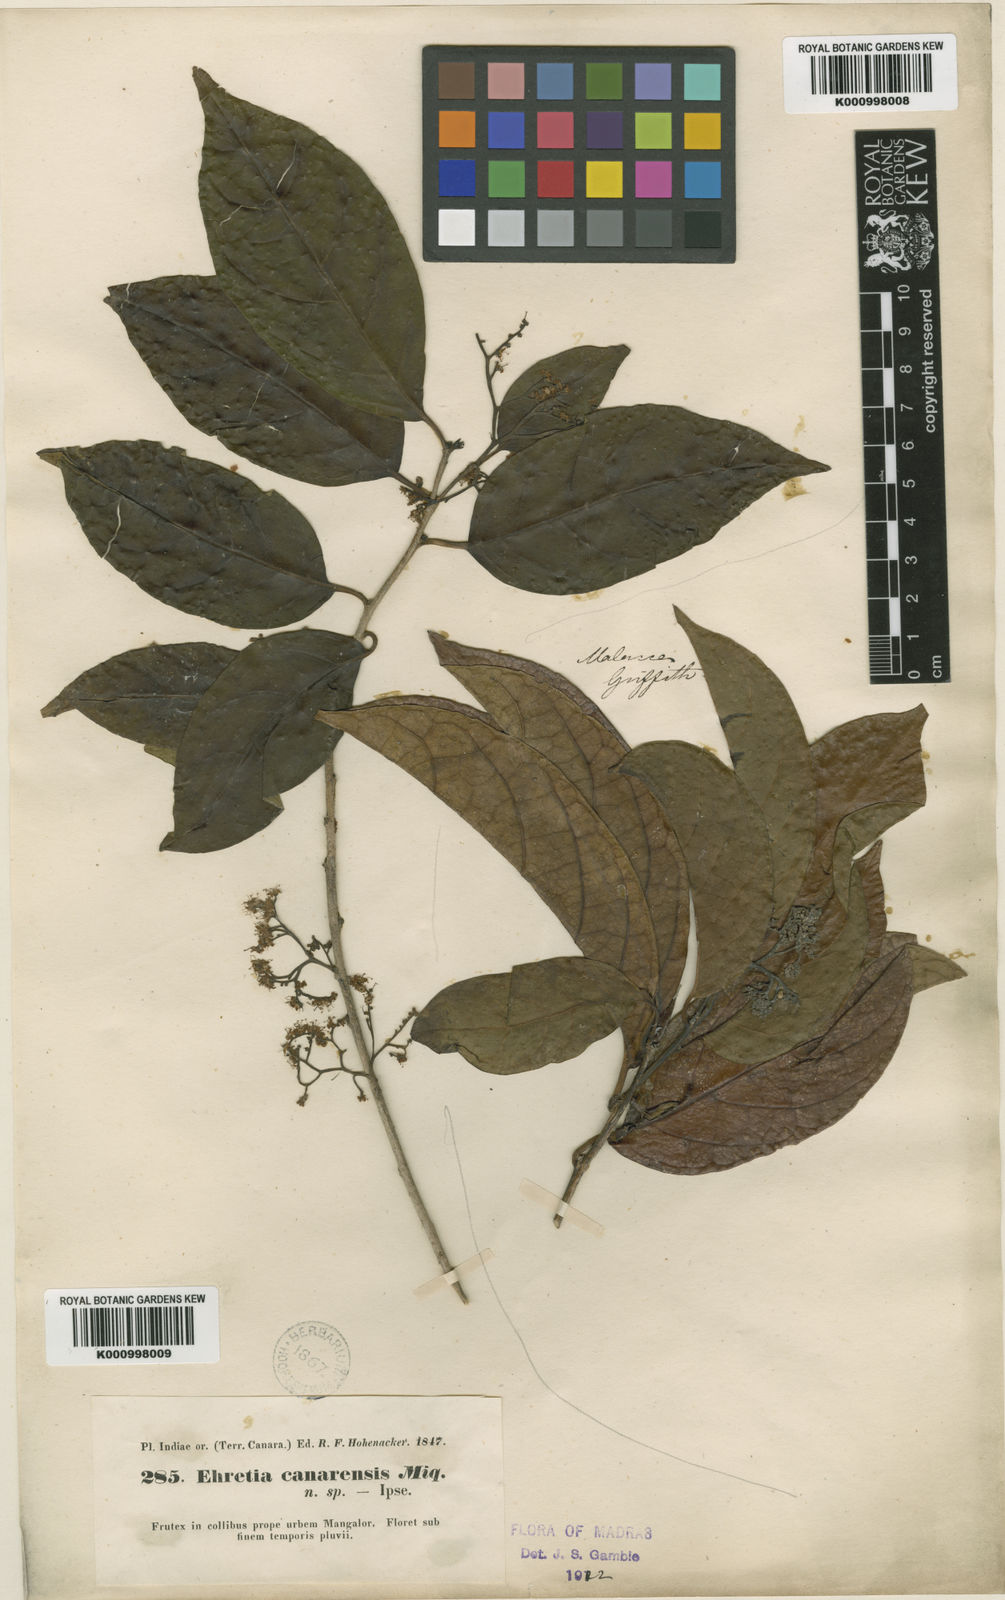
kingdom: Plantae
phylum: Tracheophyta
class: Magnoliopsida
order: Boraginales
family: Ehretiaceae
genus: Ehretia
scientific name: Ehretia laevis
